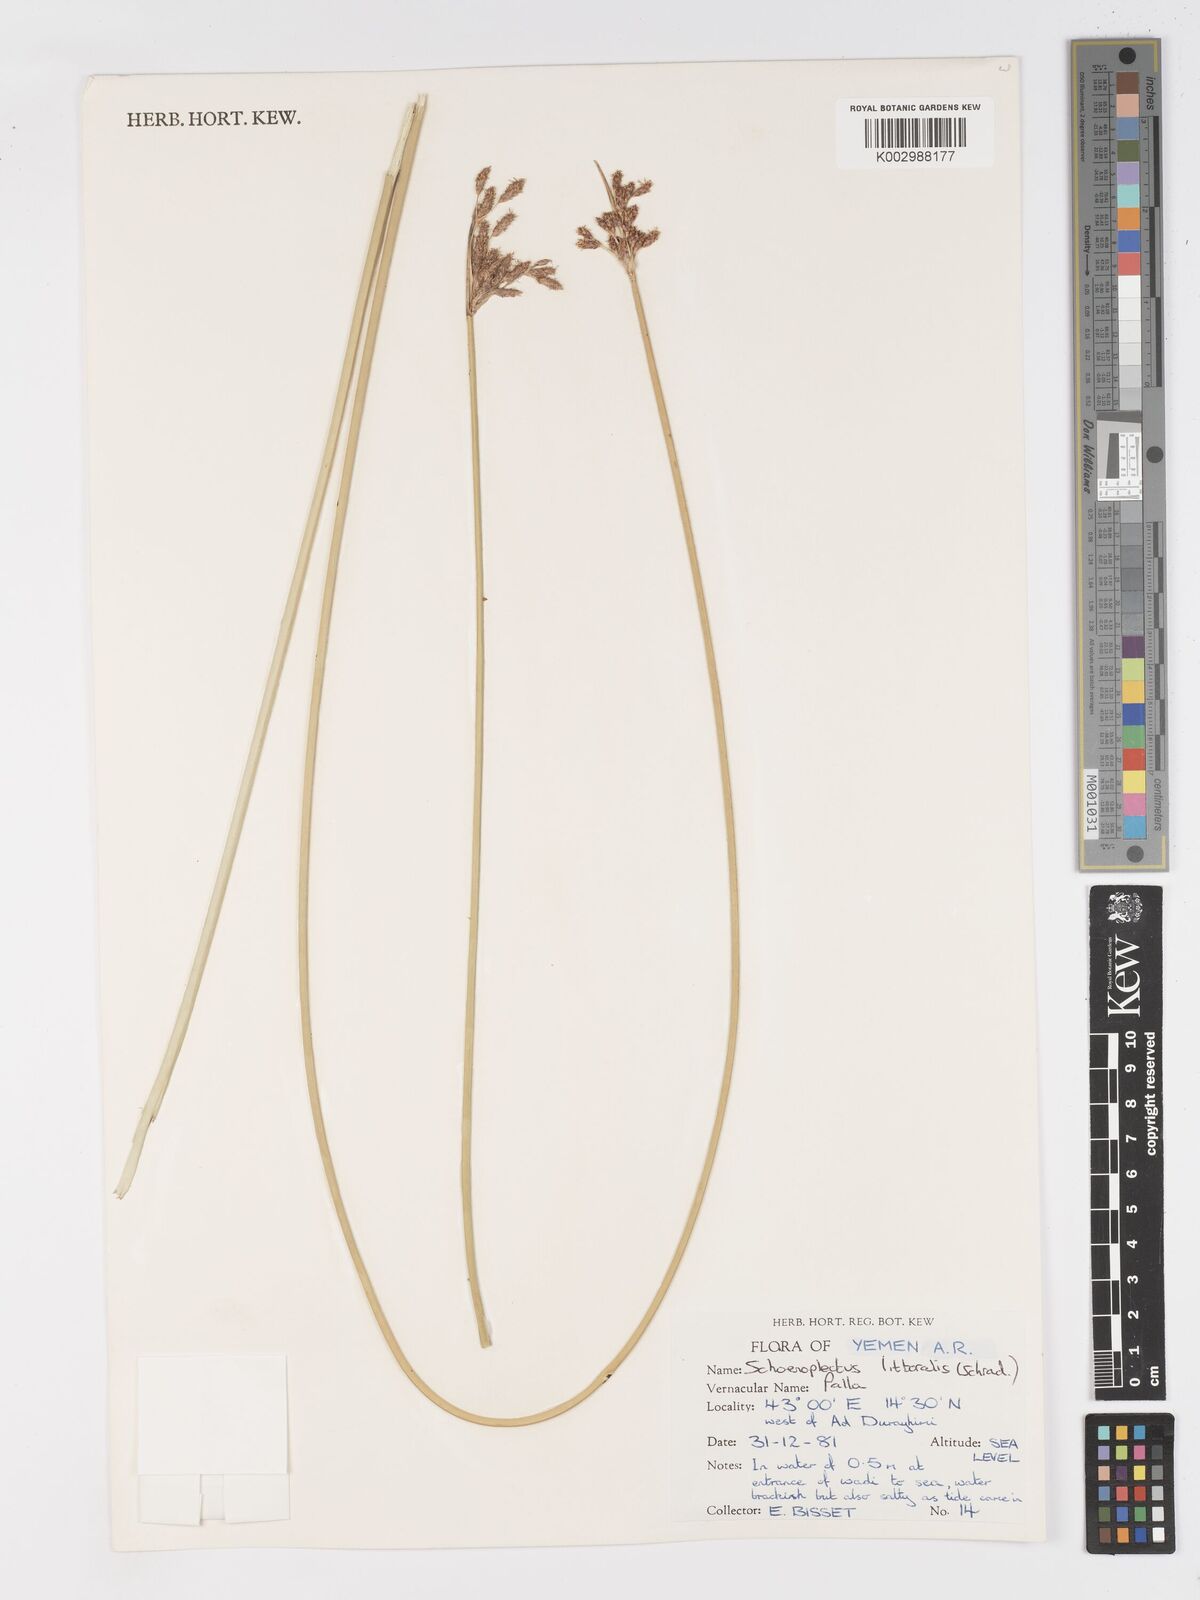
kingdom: Plantae
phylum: Tracheophyta
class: Liliopsida
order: Poales
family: Cyperaceae
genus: Schoenoplectus
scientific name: Schoenoplectus litoralis
